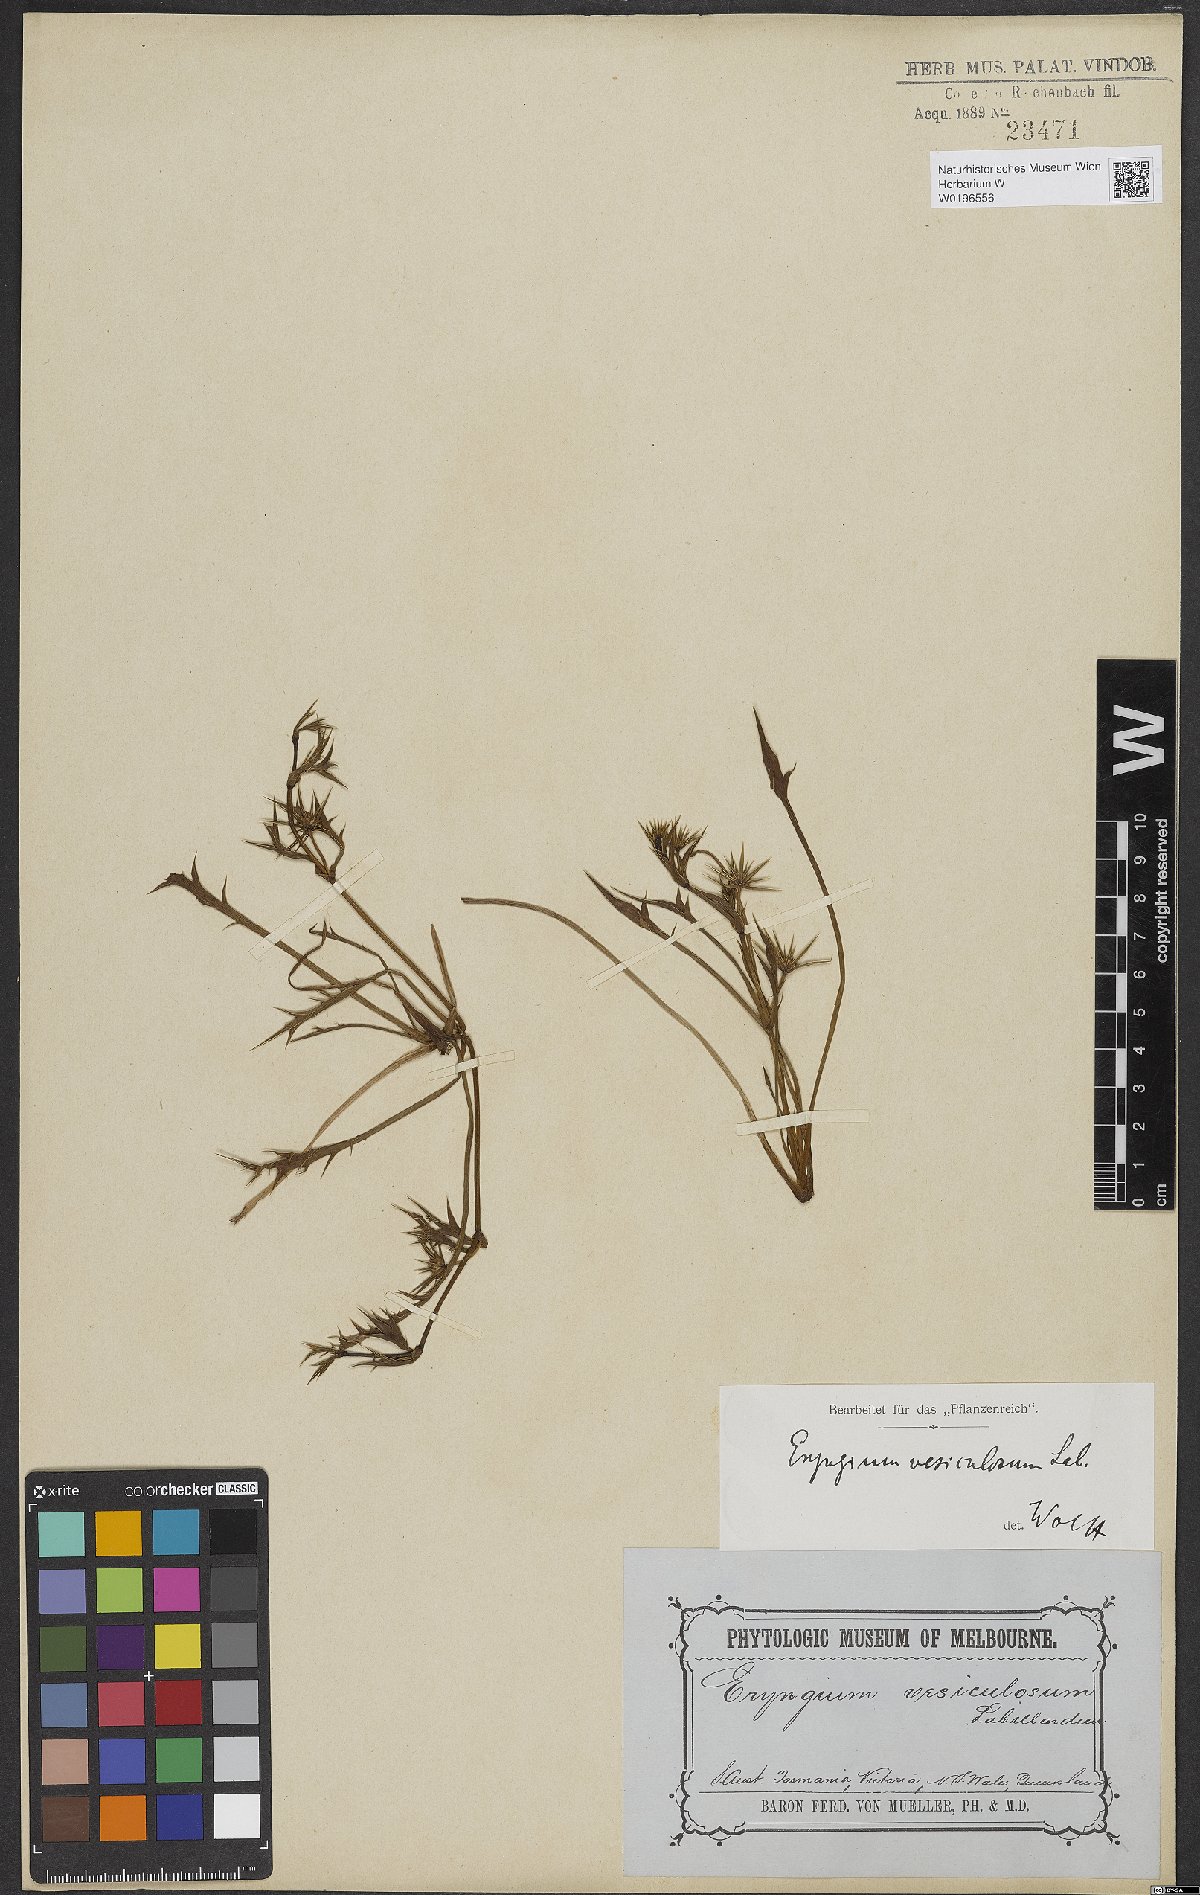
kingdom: Plantae
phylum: Tracheophyta
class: Magnoliopsida
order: Apiales
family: Apiaceae
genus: Eryngium
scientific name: Eryngium vesiculosum
